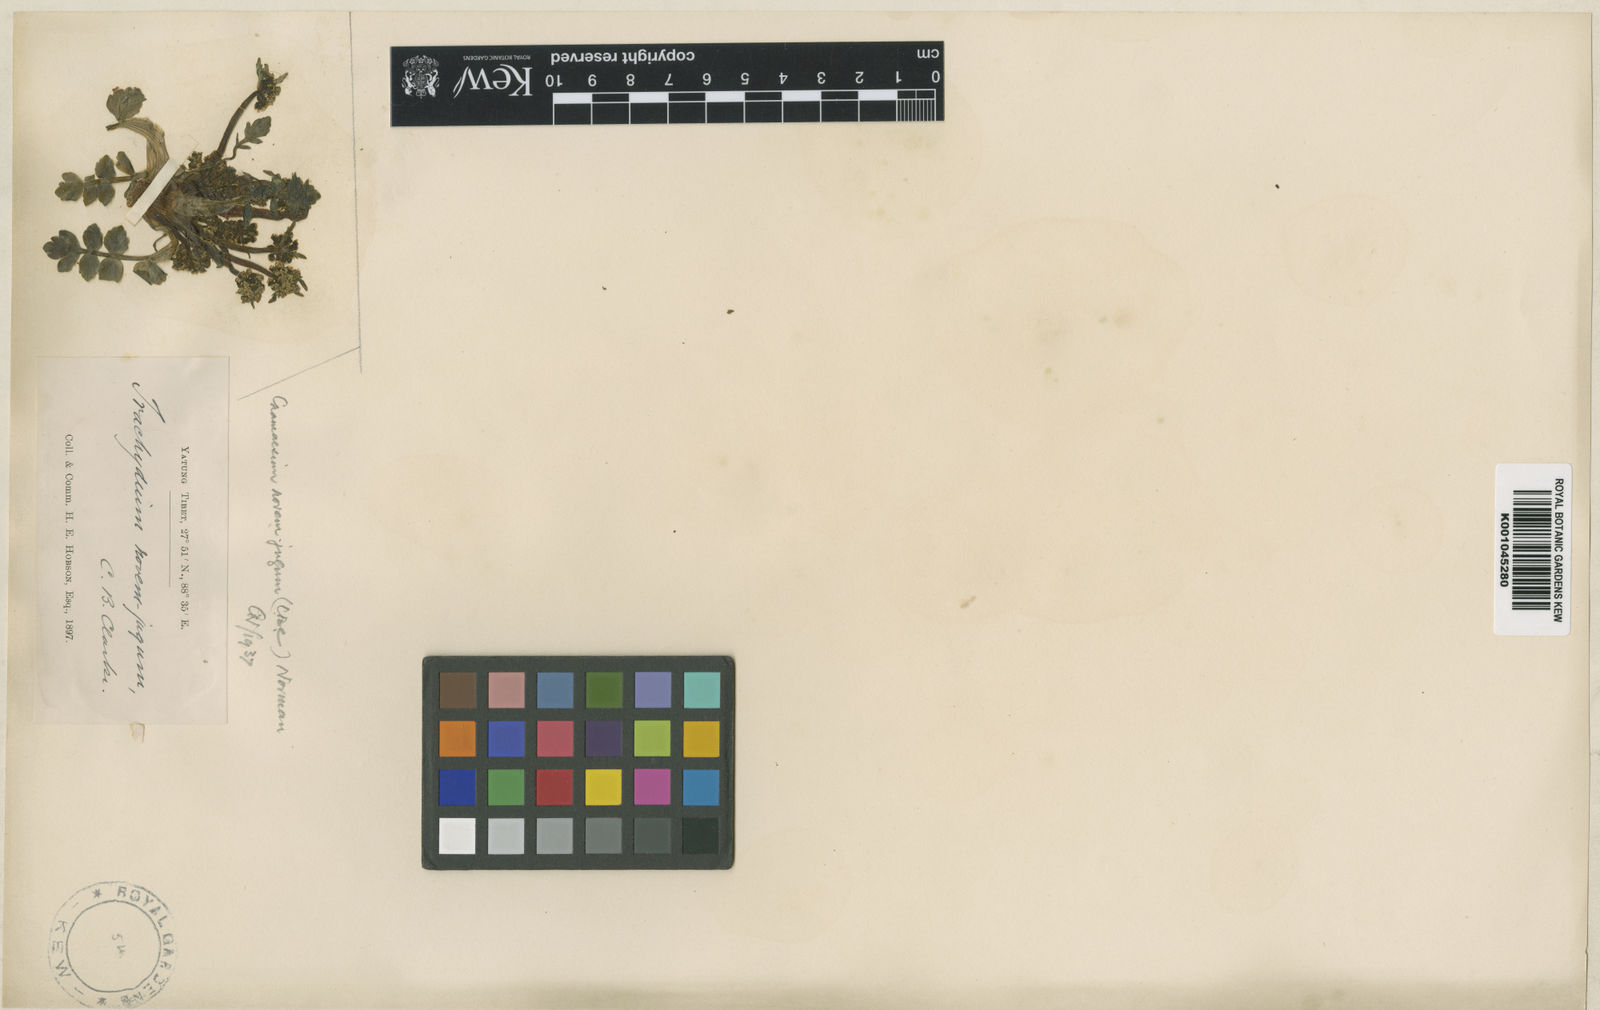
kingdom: Plantae
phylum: Tracheophyta
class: Magnoliopsida
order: Apiales
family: Apiaceae
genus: Chamaesium
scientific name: Chamaesium novem-jugum
